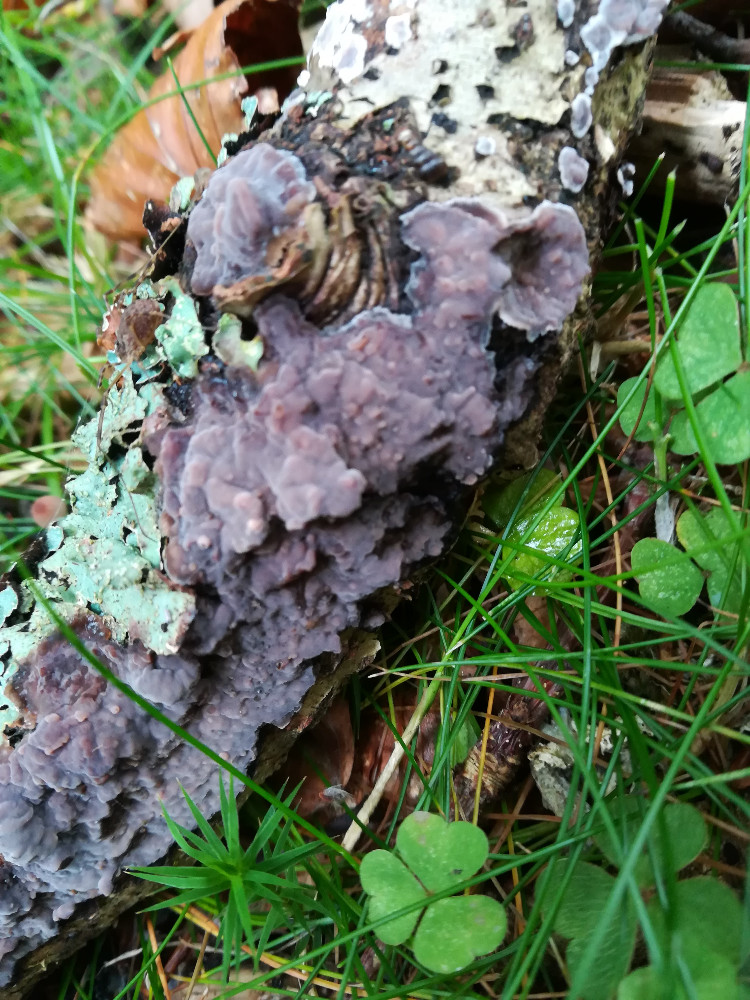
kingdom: Fungi
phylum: Basidiomycota
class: Agaricomycetes
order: Russulales
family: Peniophoraceae
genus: Peniophora
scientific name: Peniophora quercina
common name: ege-voksskind
